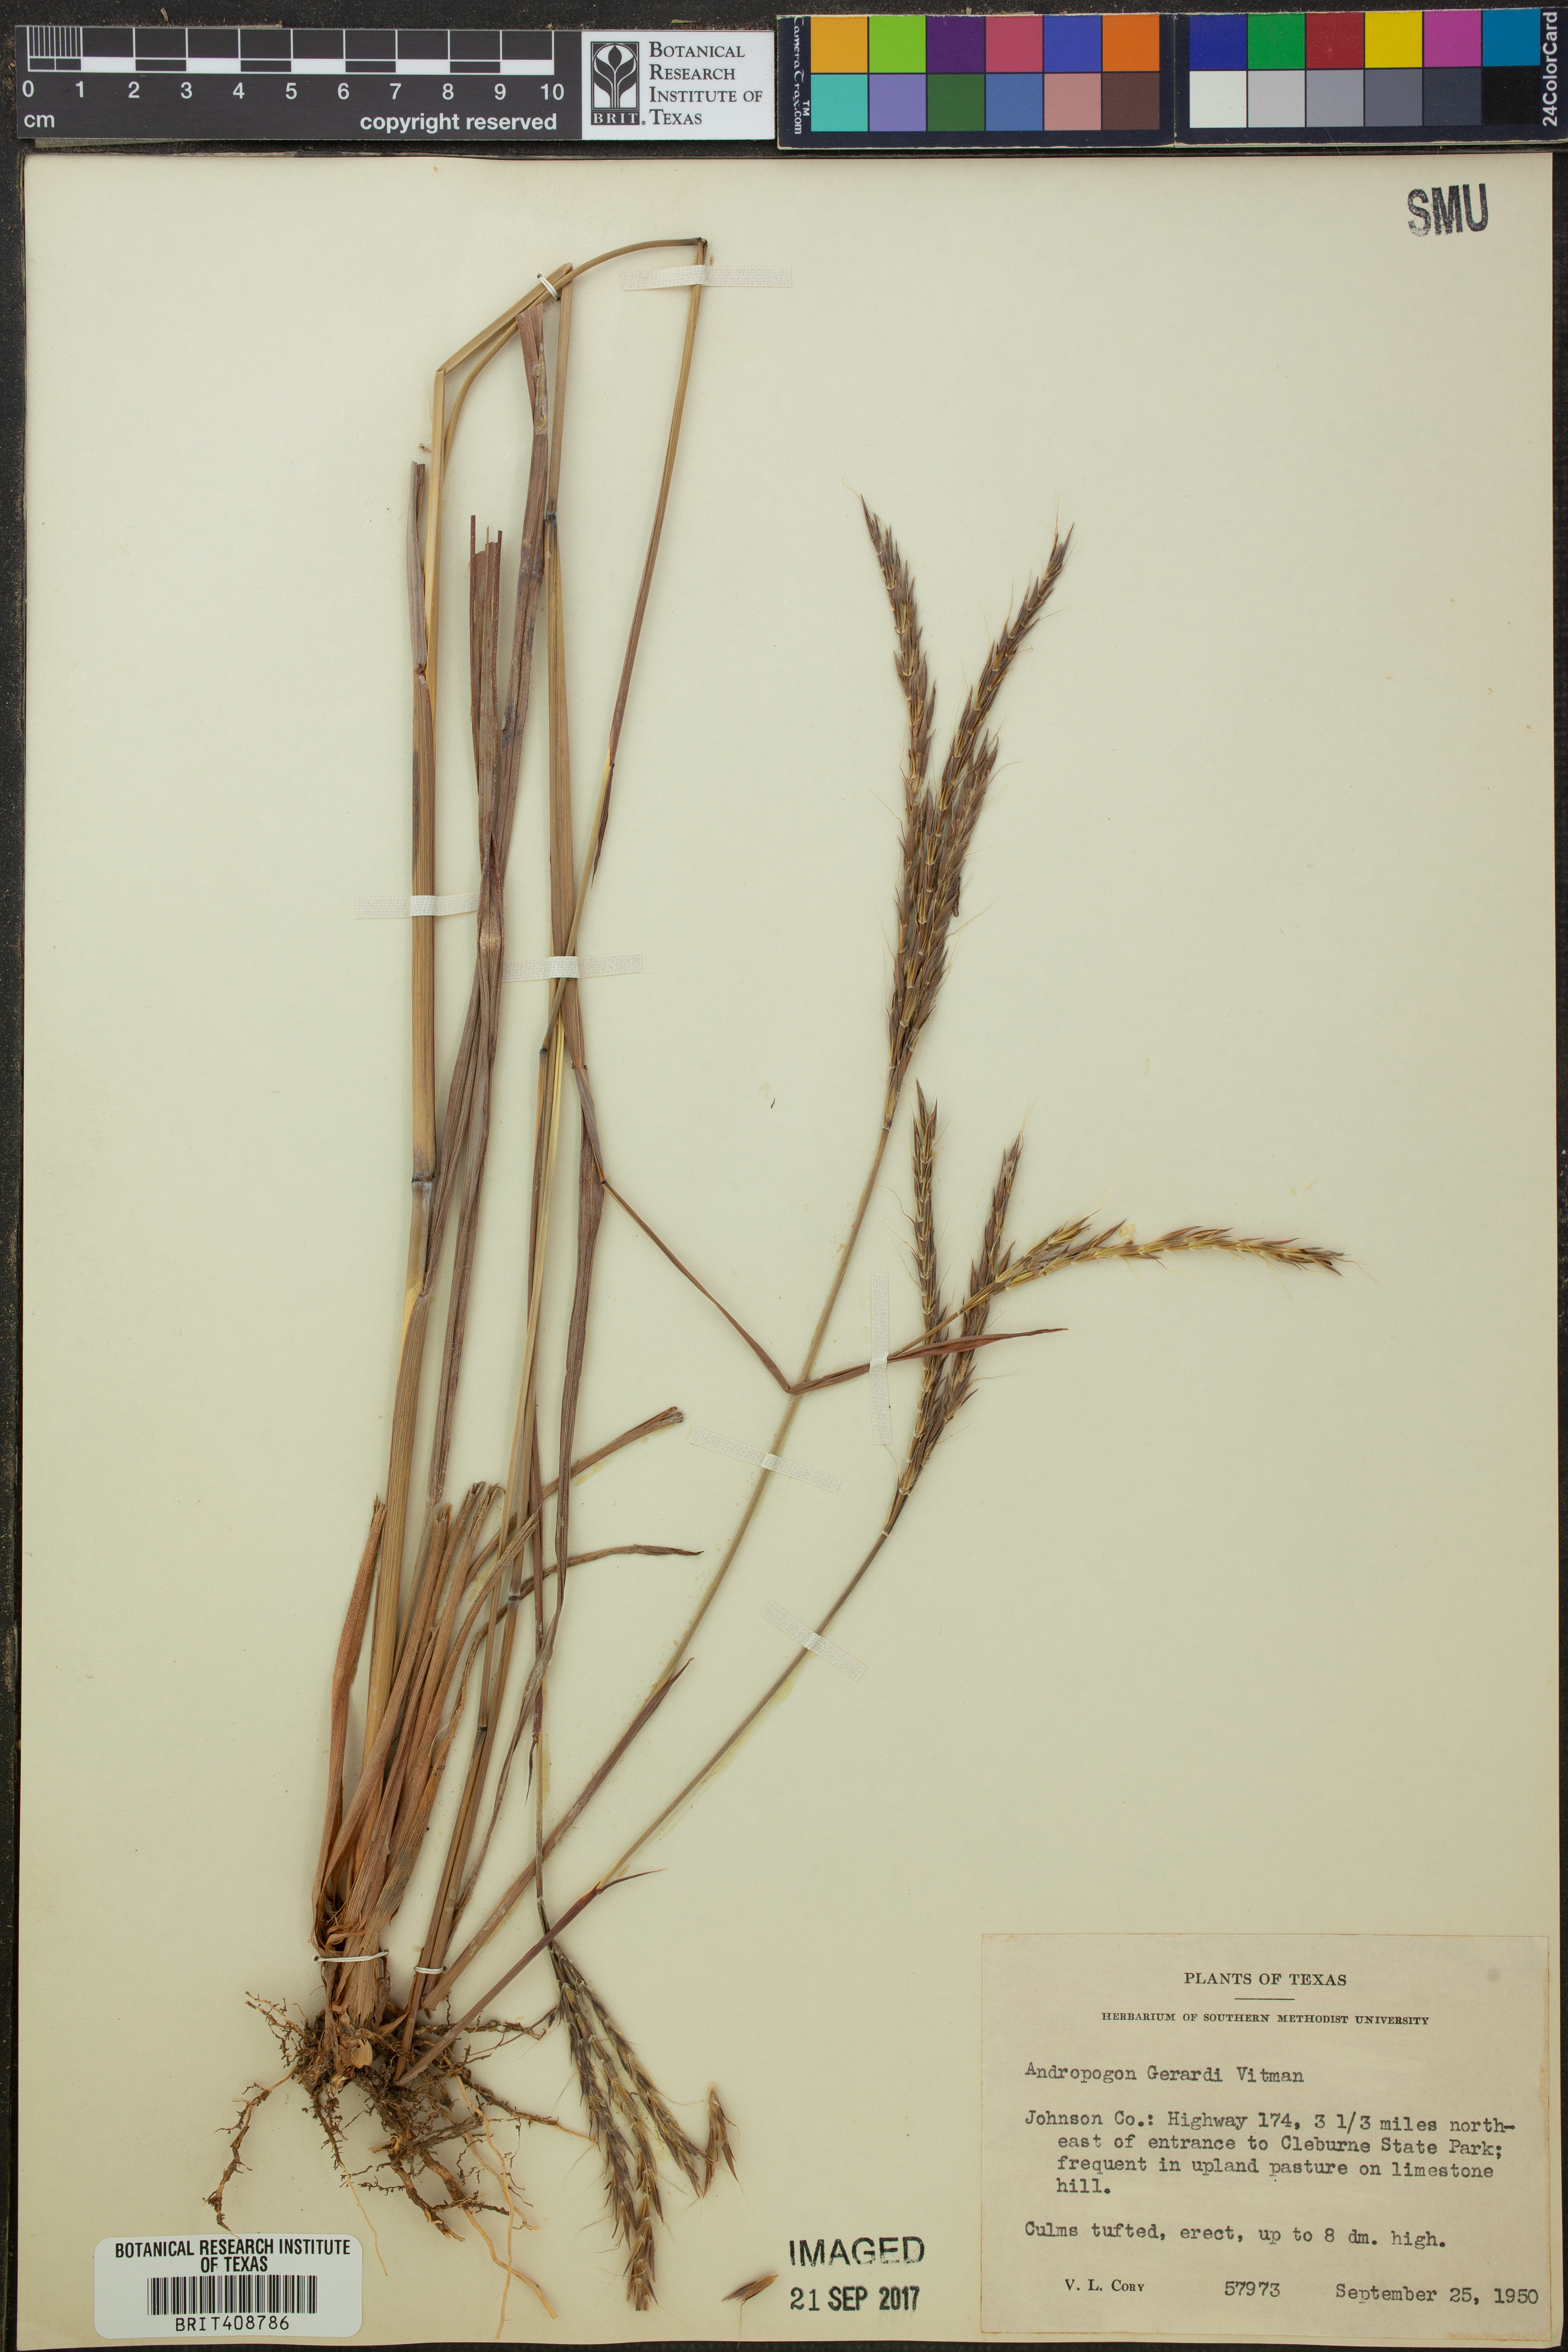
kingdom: Plantae
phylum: Tracheophyta
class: Liliopsida
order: Poales
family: Poaceae
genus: Andropogon
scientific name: Andropogon gerardi
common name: Big bluestem
